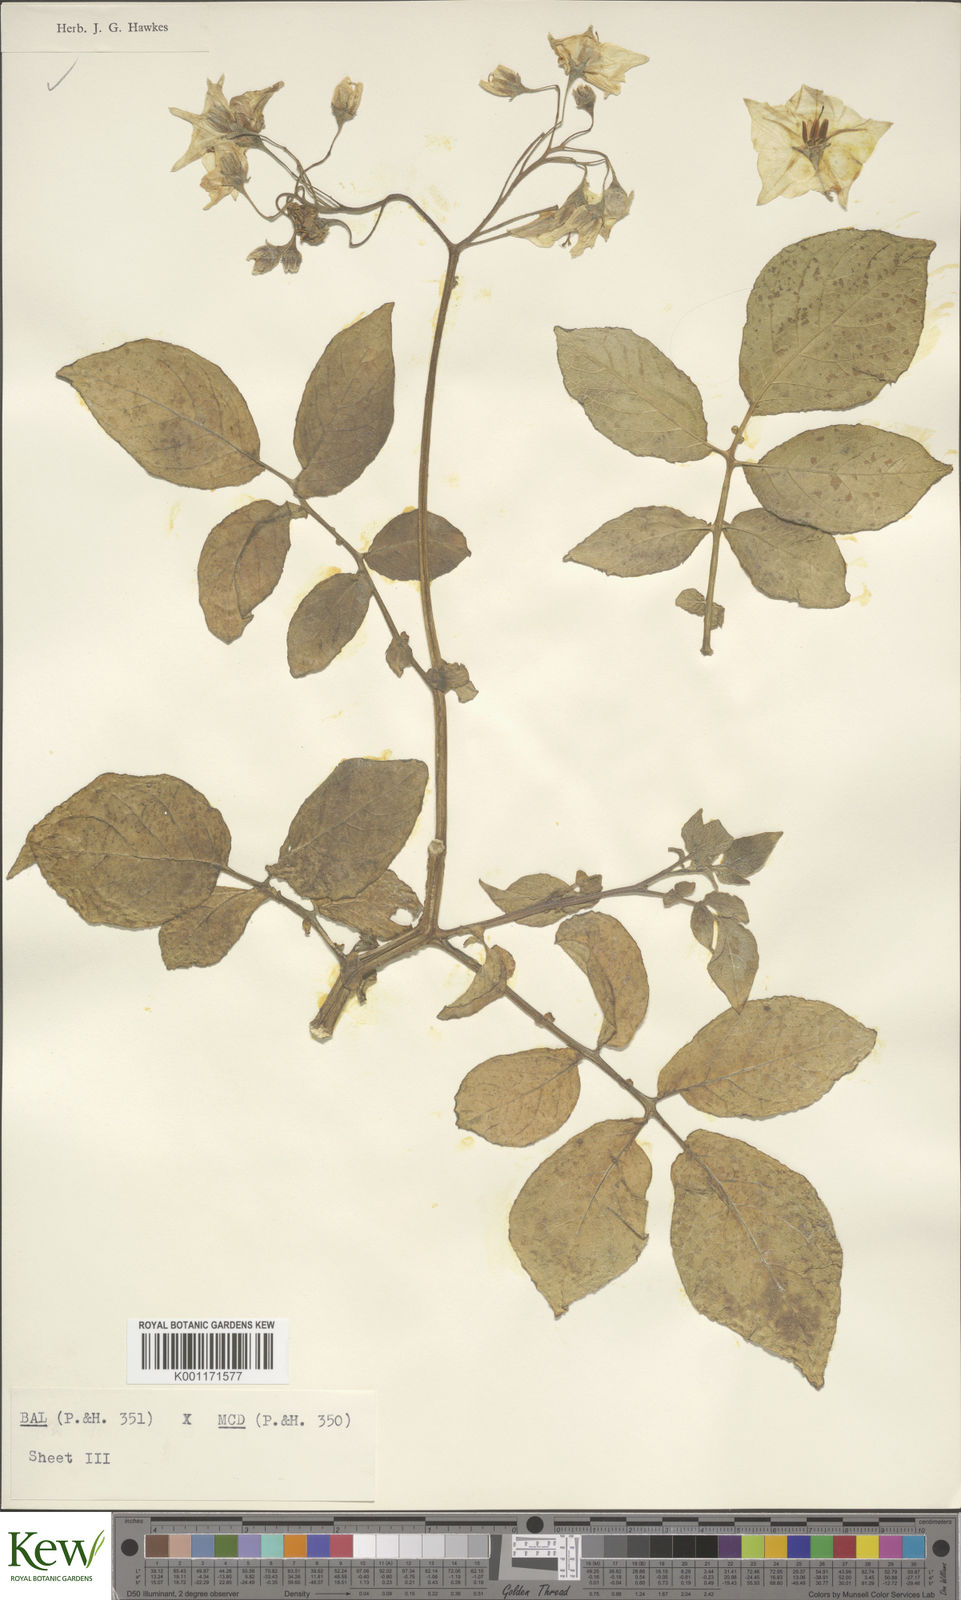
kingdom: Plantae
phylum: Tracheophyta
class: Magnoliopsida
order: Solanales
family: Solanaceae
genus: Solanum
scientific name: Solanum vernei
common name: Purple potato
